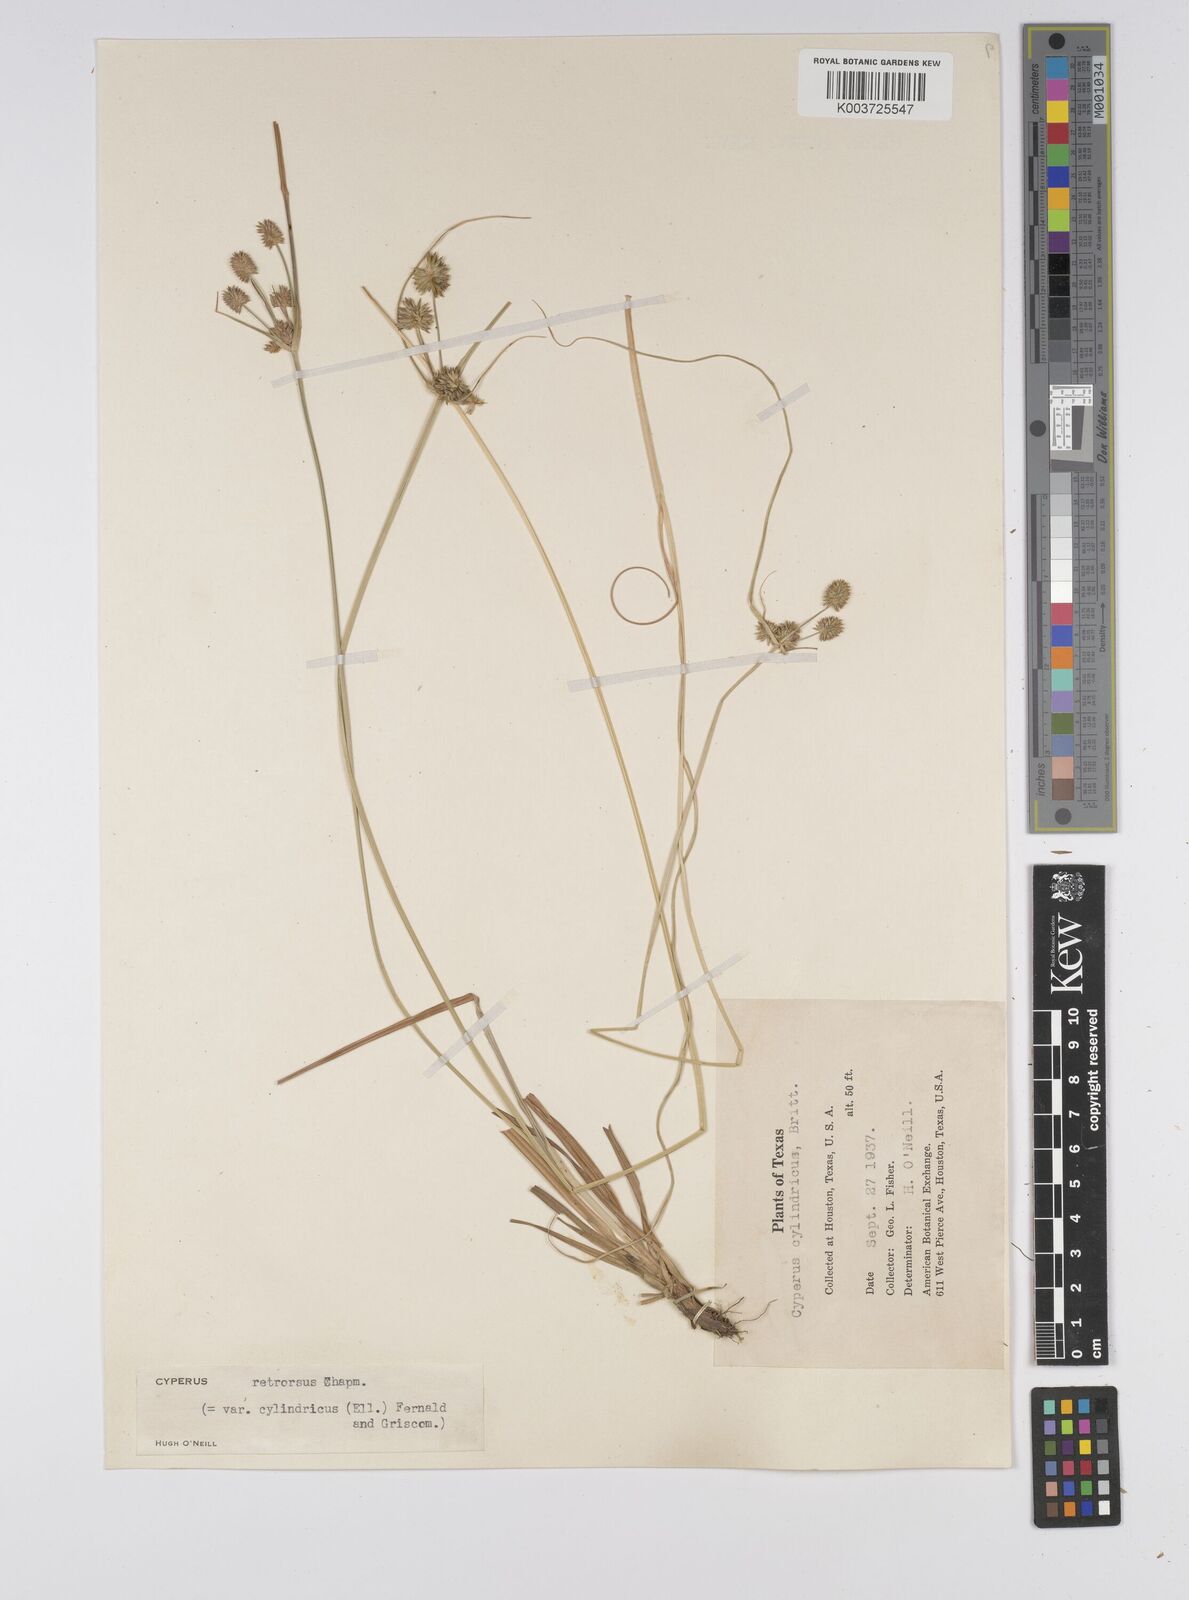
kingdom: Plantae
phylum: Tracheophyta
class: Liliopsida
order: Poales
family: Cyperaceae
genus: Cyperus
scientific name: Cyperus retrorsus
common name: Pinebarren flat sedge
